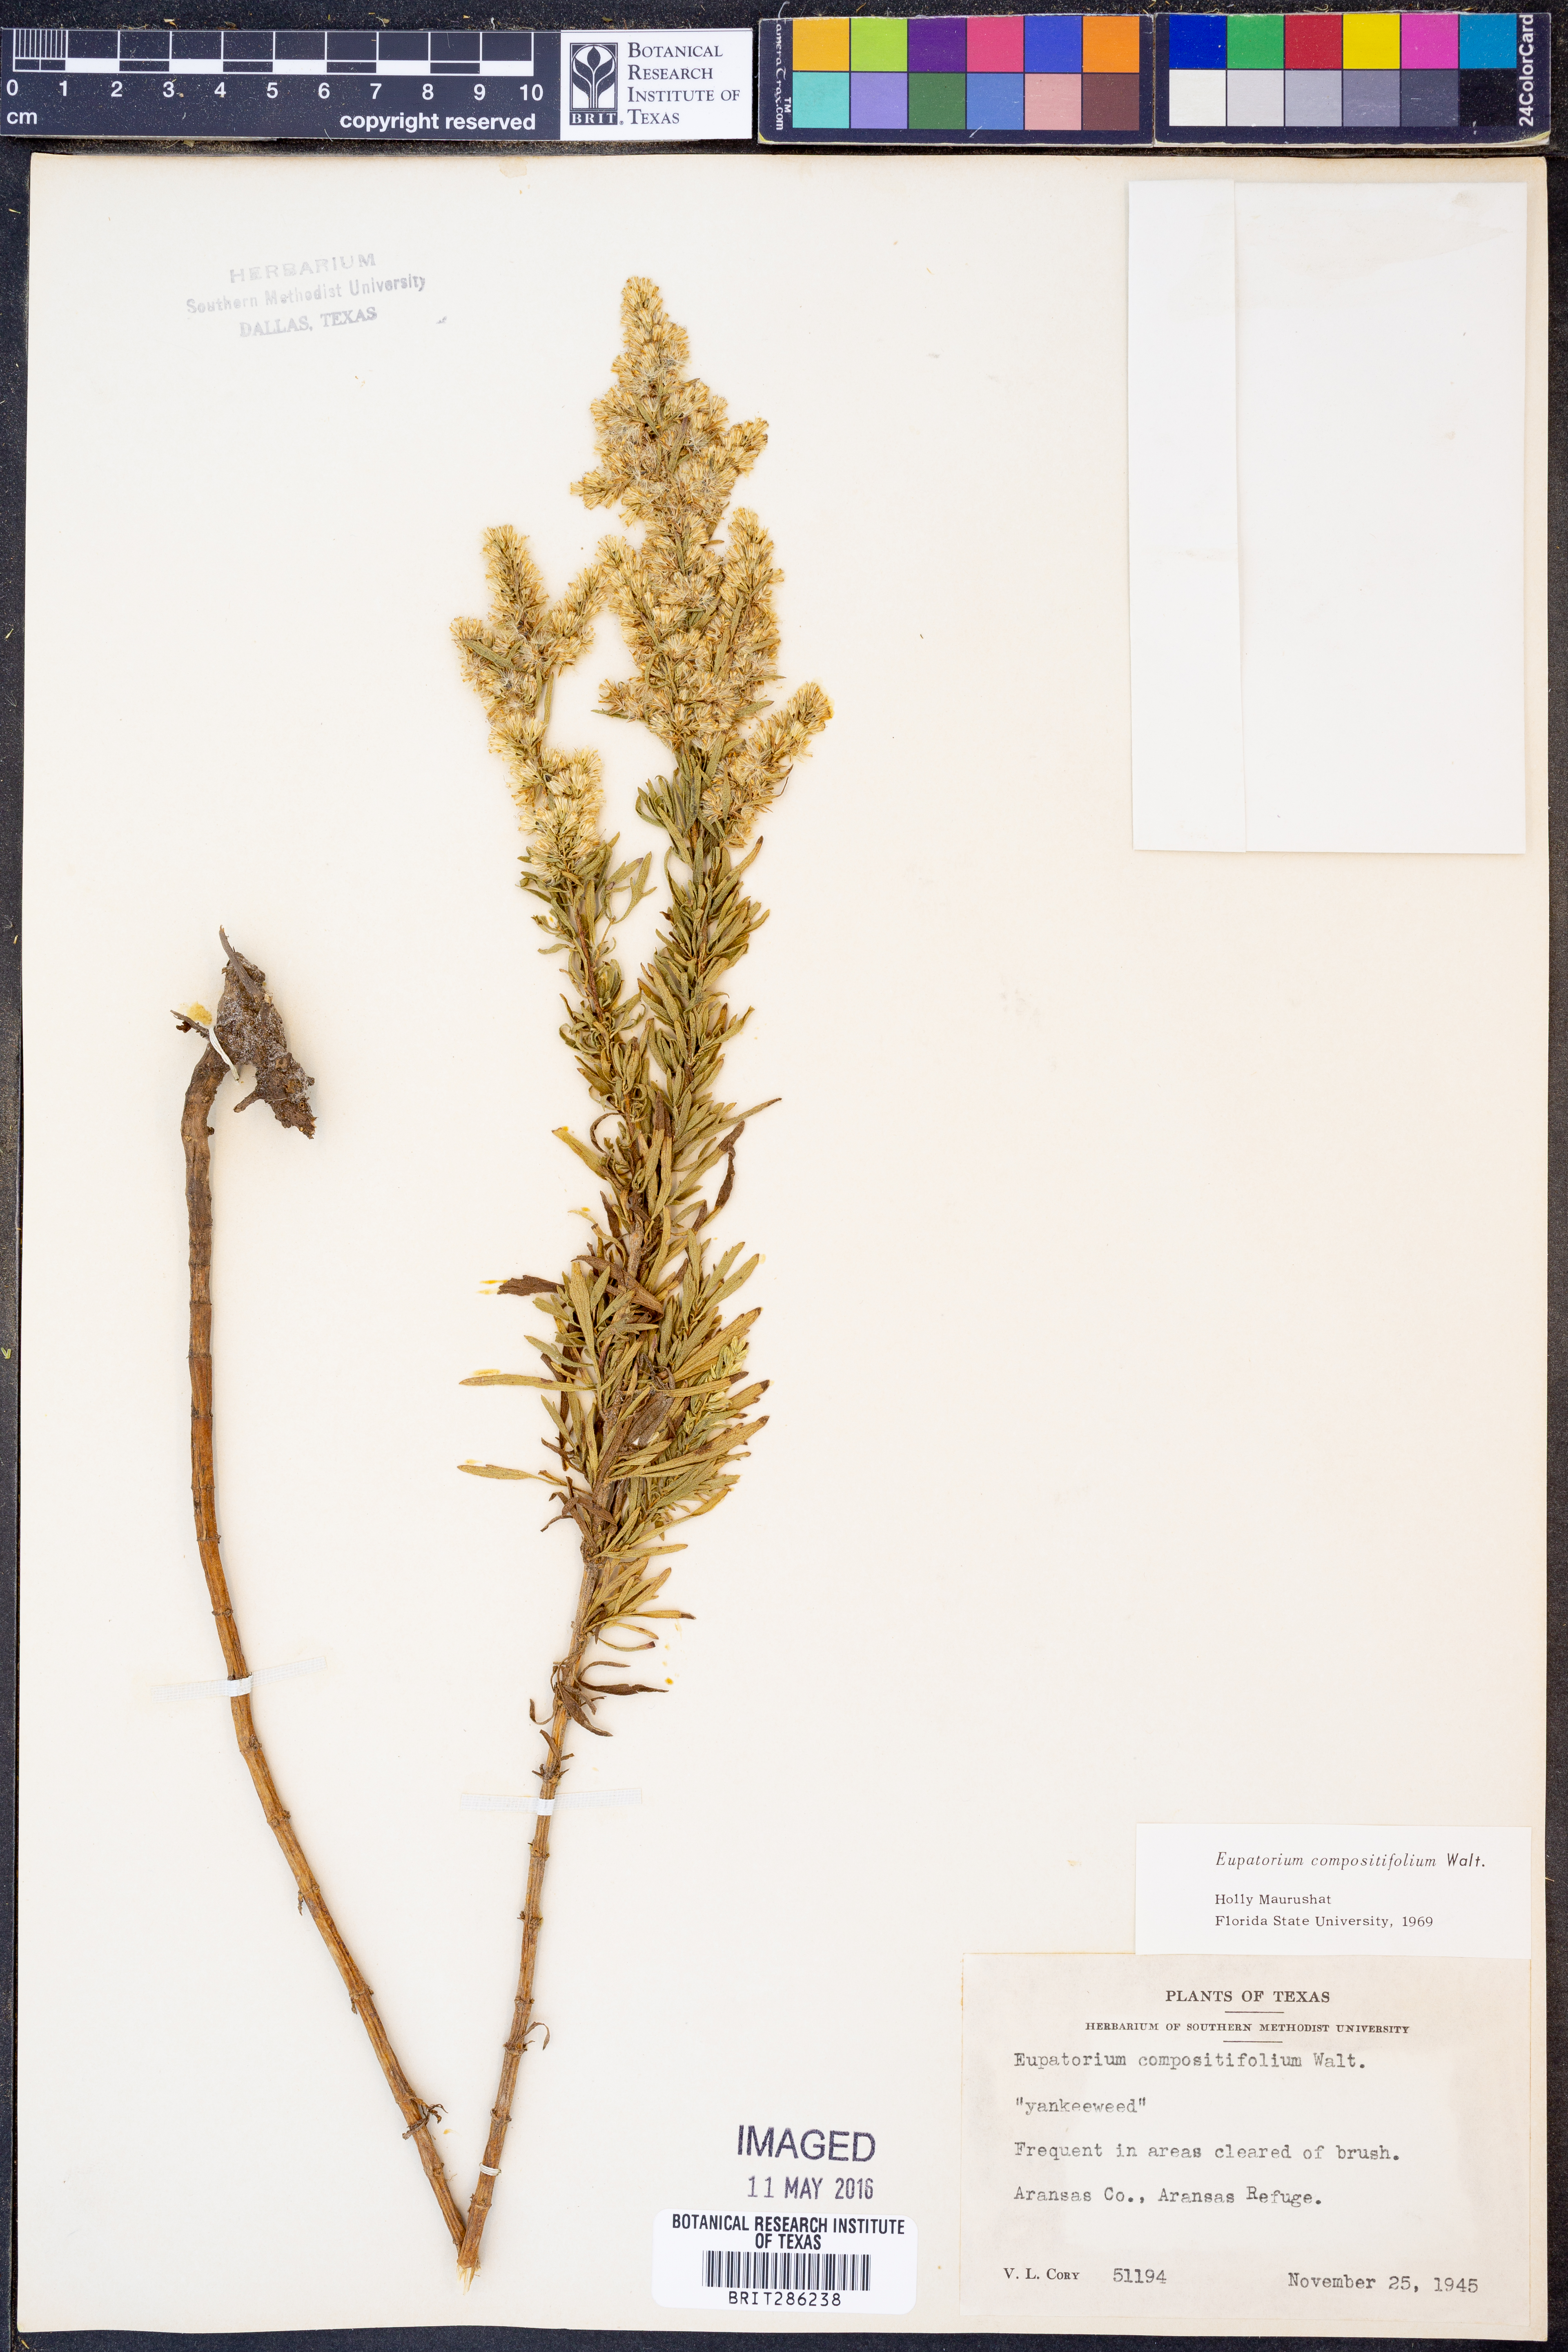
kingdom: Plantae
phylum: Tracheophyta
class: Magnoliopsida
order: Asterales
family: Asteraceae
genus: Eupatorium
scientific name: Eupatorium compositifolium
